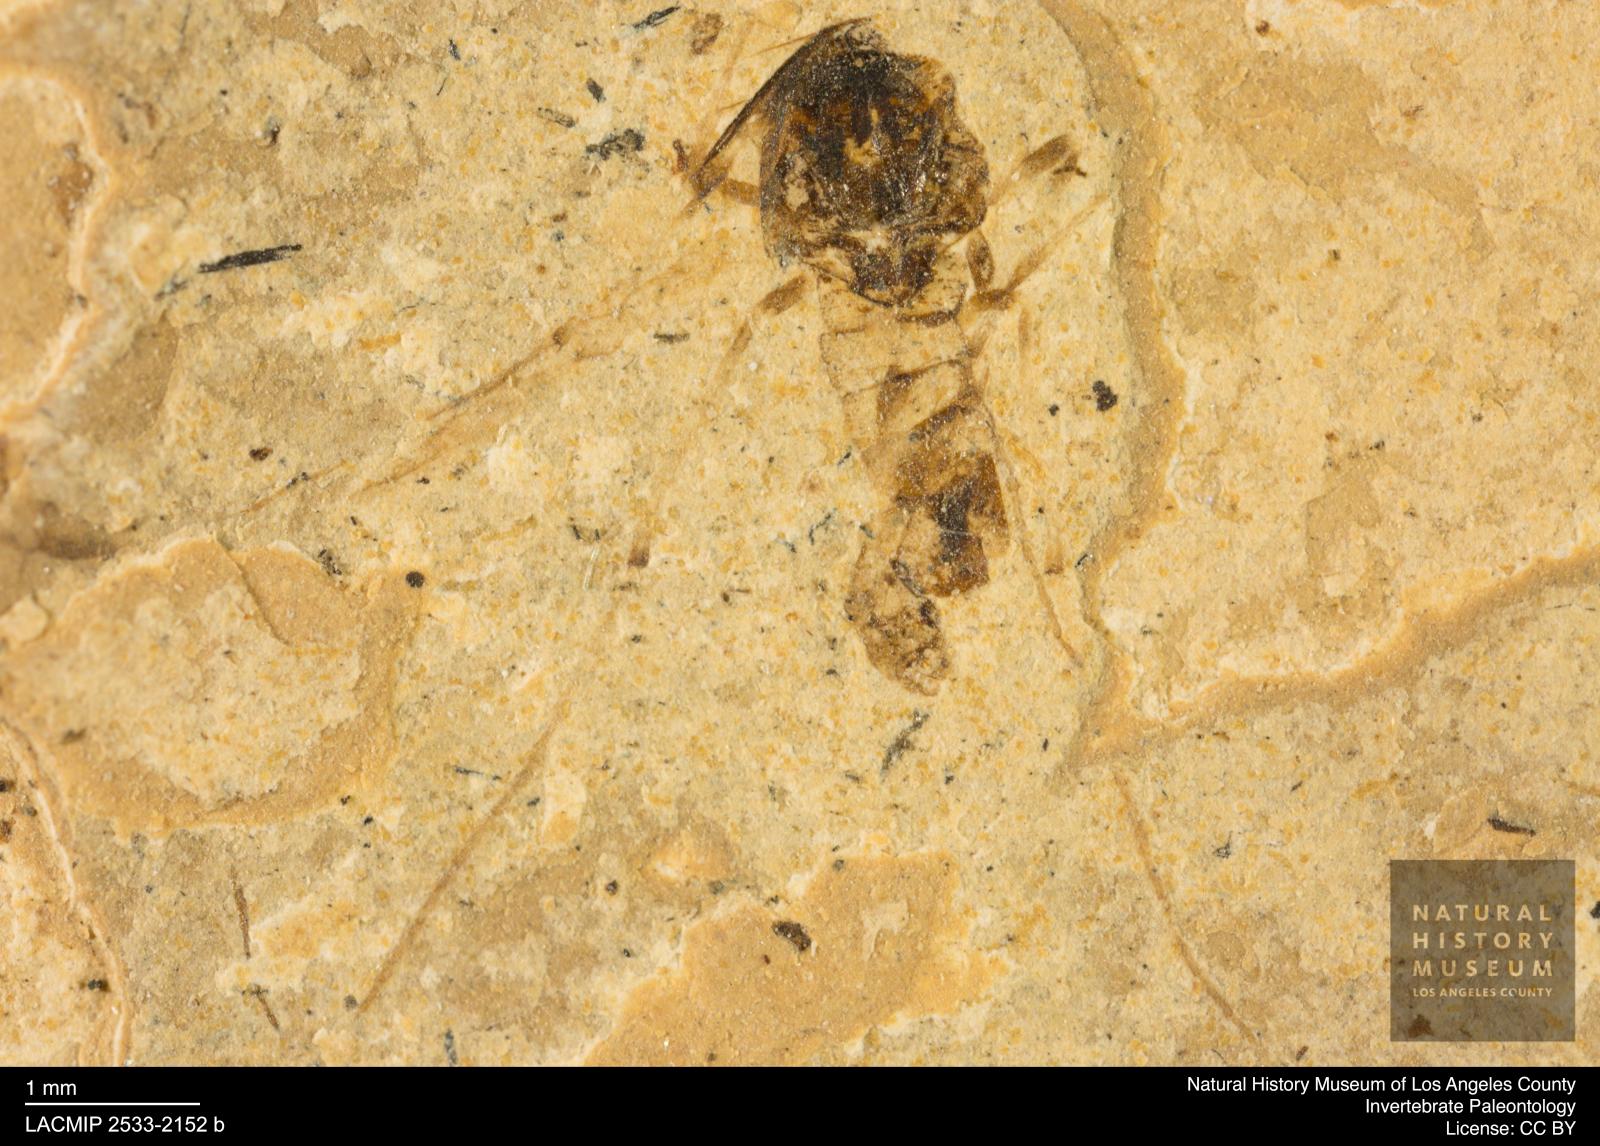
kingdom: Animalia
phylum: Arthropoda
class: Insecta
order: Diptera
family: Chironomidae
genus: Tanypus
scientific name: Tanypus dorminans
